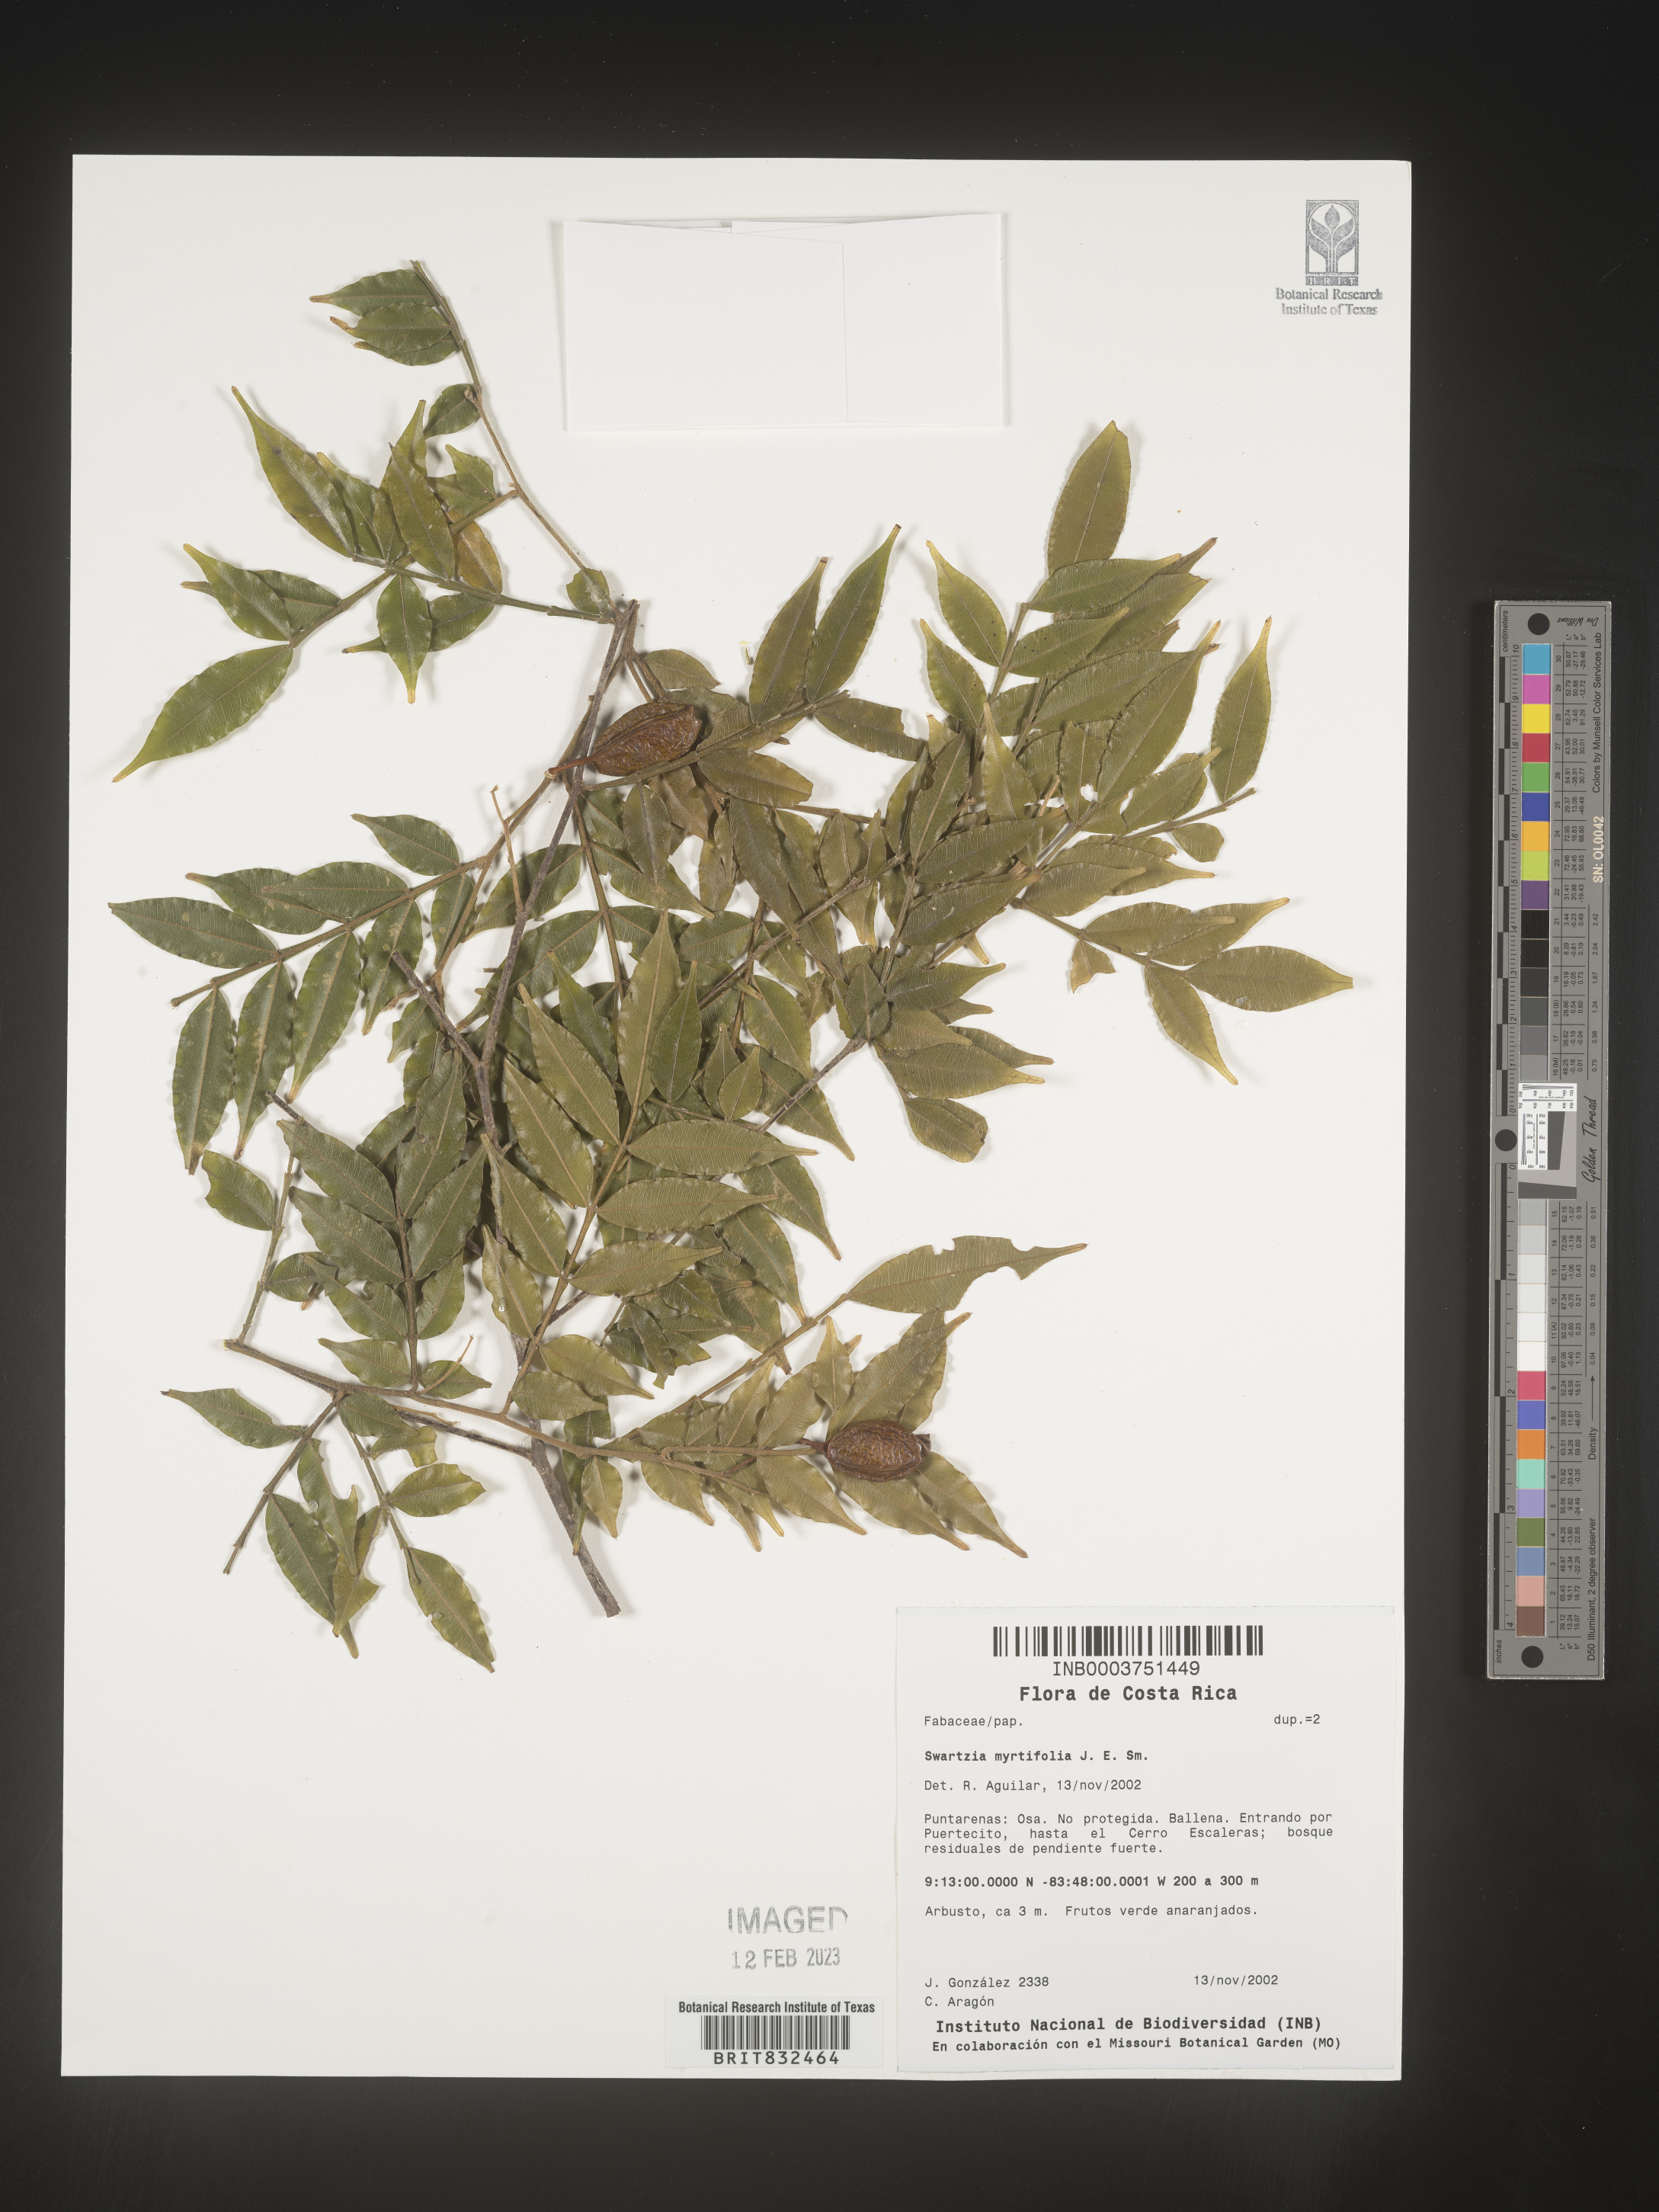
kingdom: Plantae
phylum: Tracheophyta
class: Magnoliopsida
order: Fabales
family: Fabaceae
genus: Swartzia
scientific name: Swartzia
